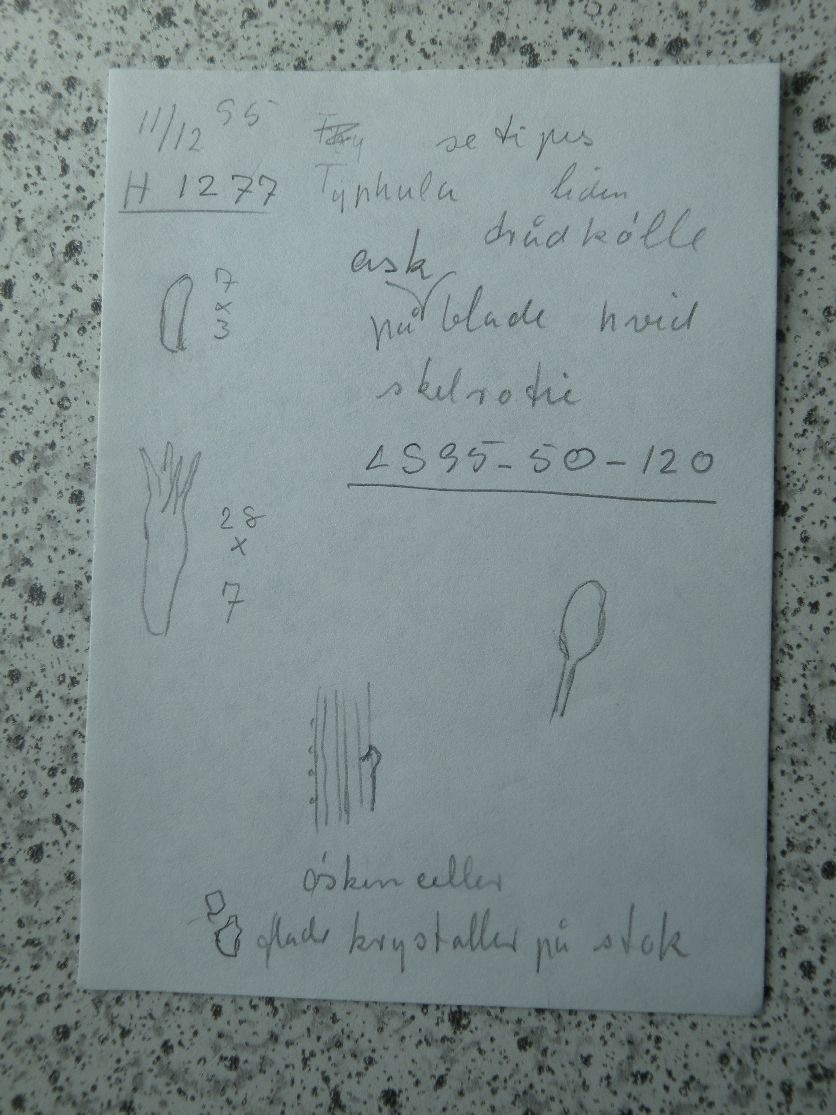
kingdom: Fungi
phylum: Basidiomycota
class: Agaricomycetes
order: Agaricales
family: Typhulaceae
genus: Typhula
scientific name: Typhula setipes
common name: liden trådkølle
